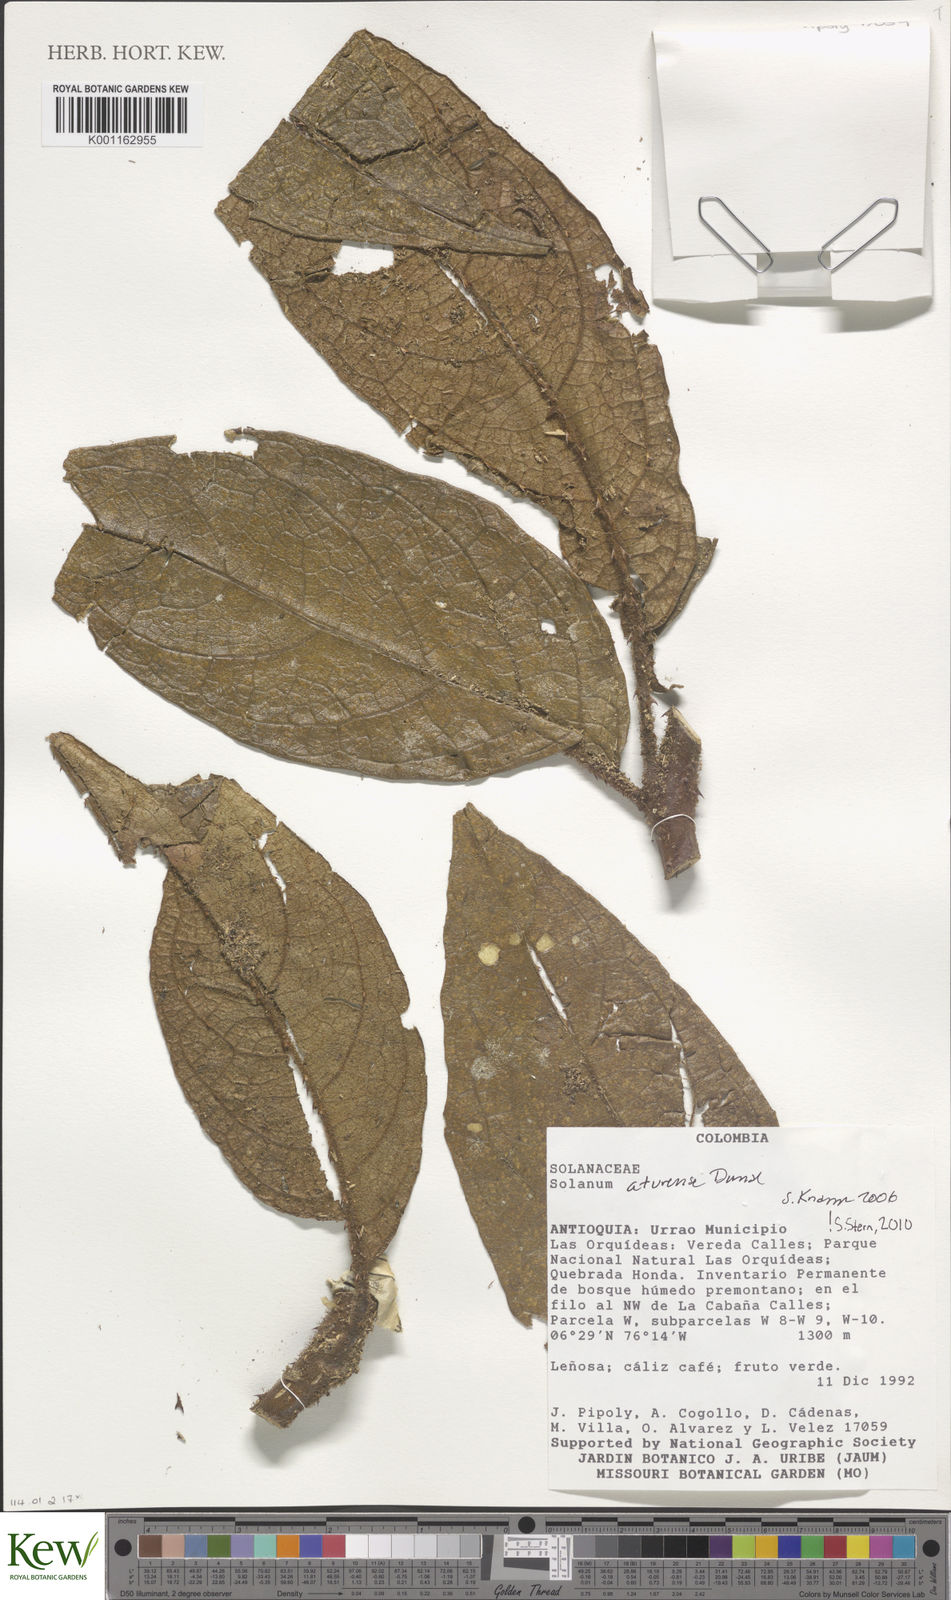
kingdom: Plantae
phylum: Tracheophyta
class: Magnoliopsida
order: Solanales
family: Solanaceae
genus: Solanum
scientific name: Solanum aturense
